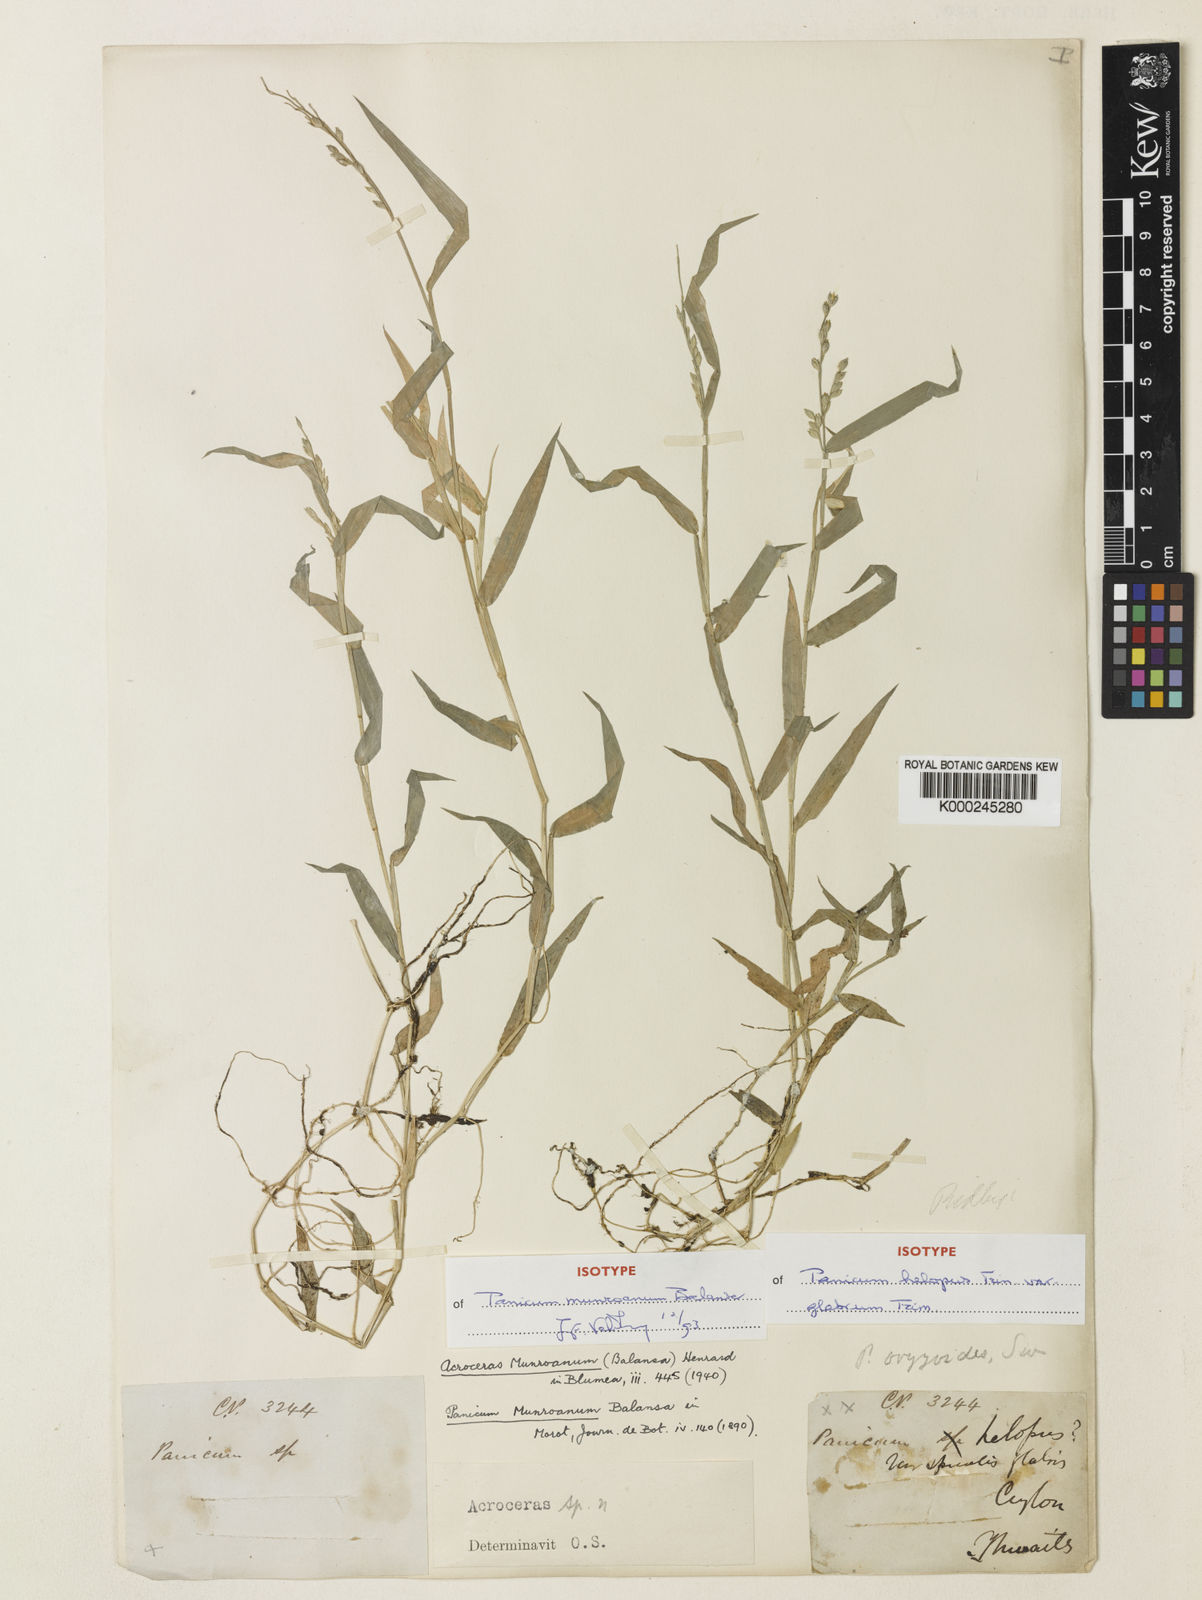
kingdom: Plantae
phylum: Tracheophyta
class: Liliopsida
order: Poales
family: Poaceae
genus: Acroceras
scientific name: Acroceras munroanum
